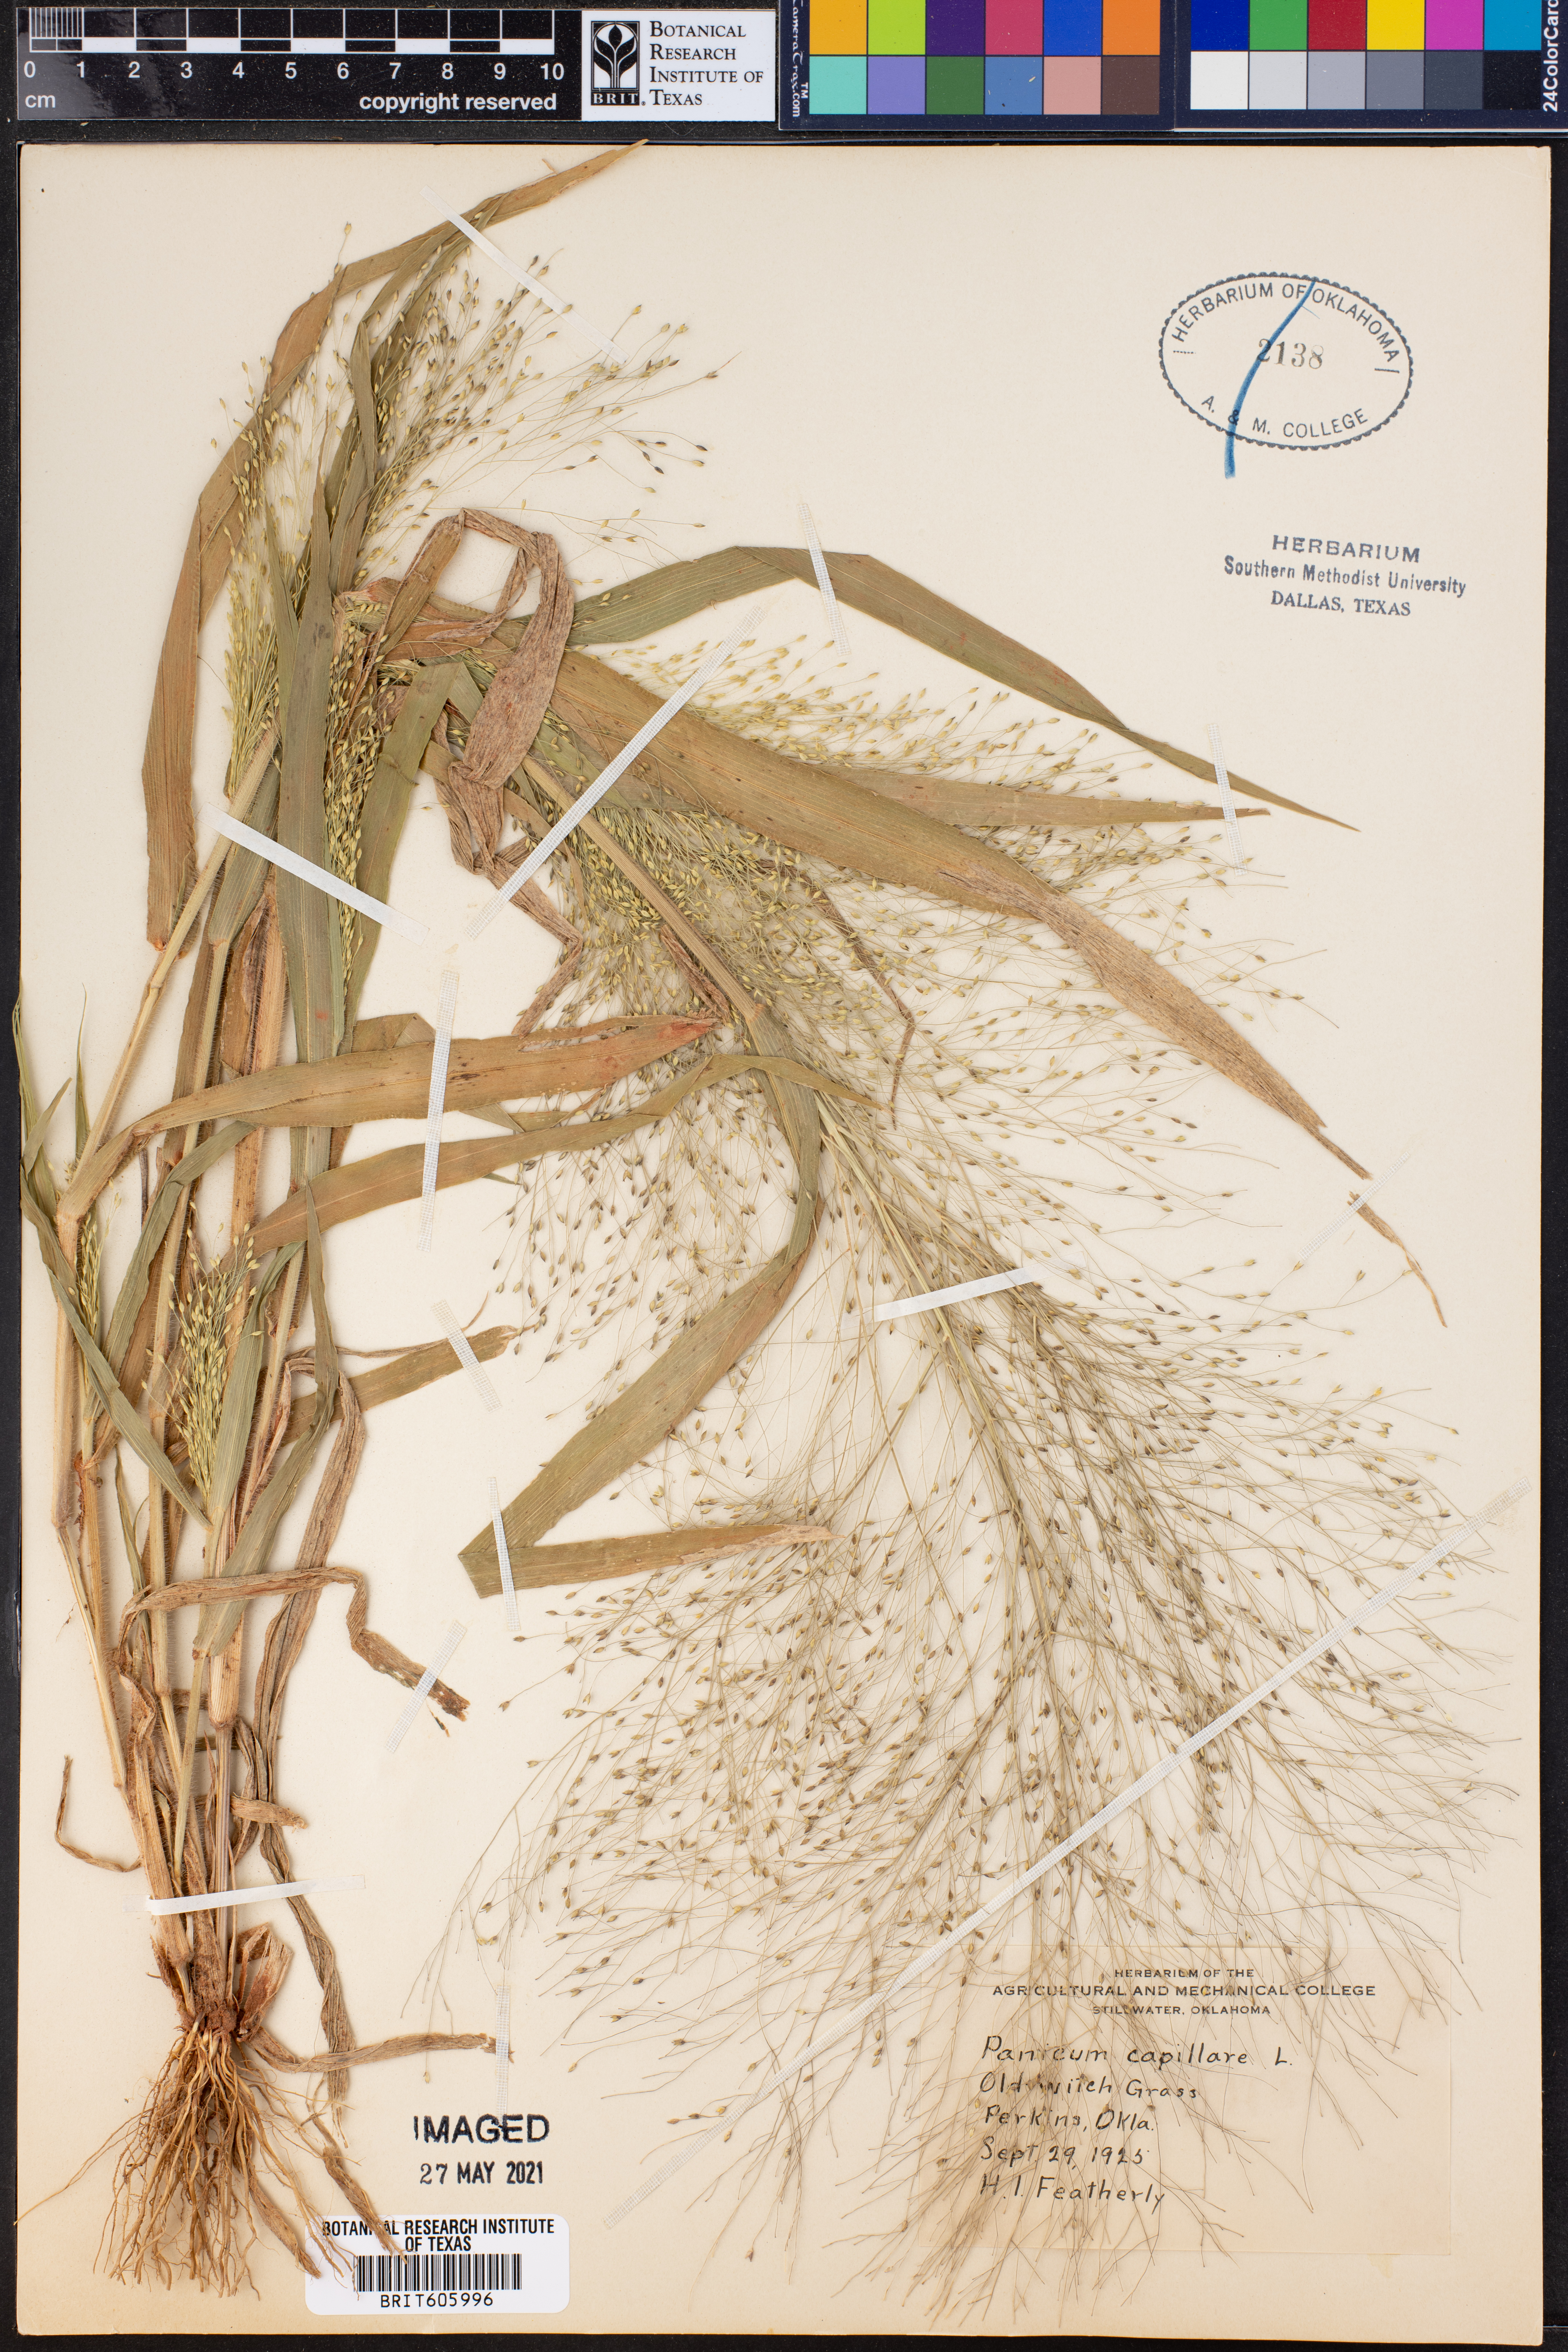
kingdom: Plantae
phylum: Tracheophyta
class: Liliopsida
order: Poales
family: Poaceae
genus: Panicum
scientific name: Panicum capillare
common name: Witch-grass
